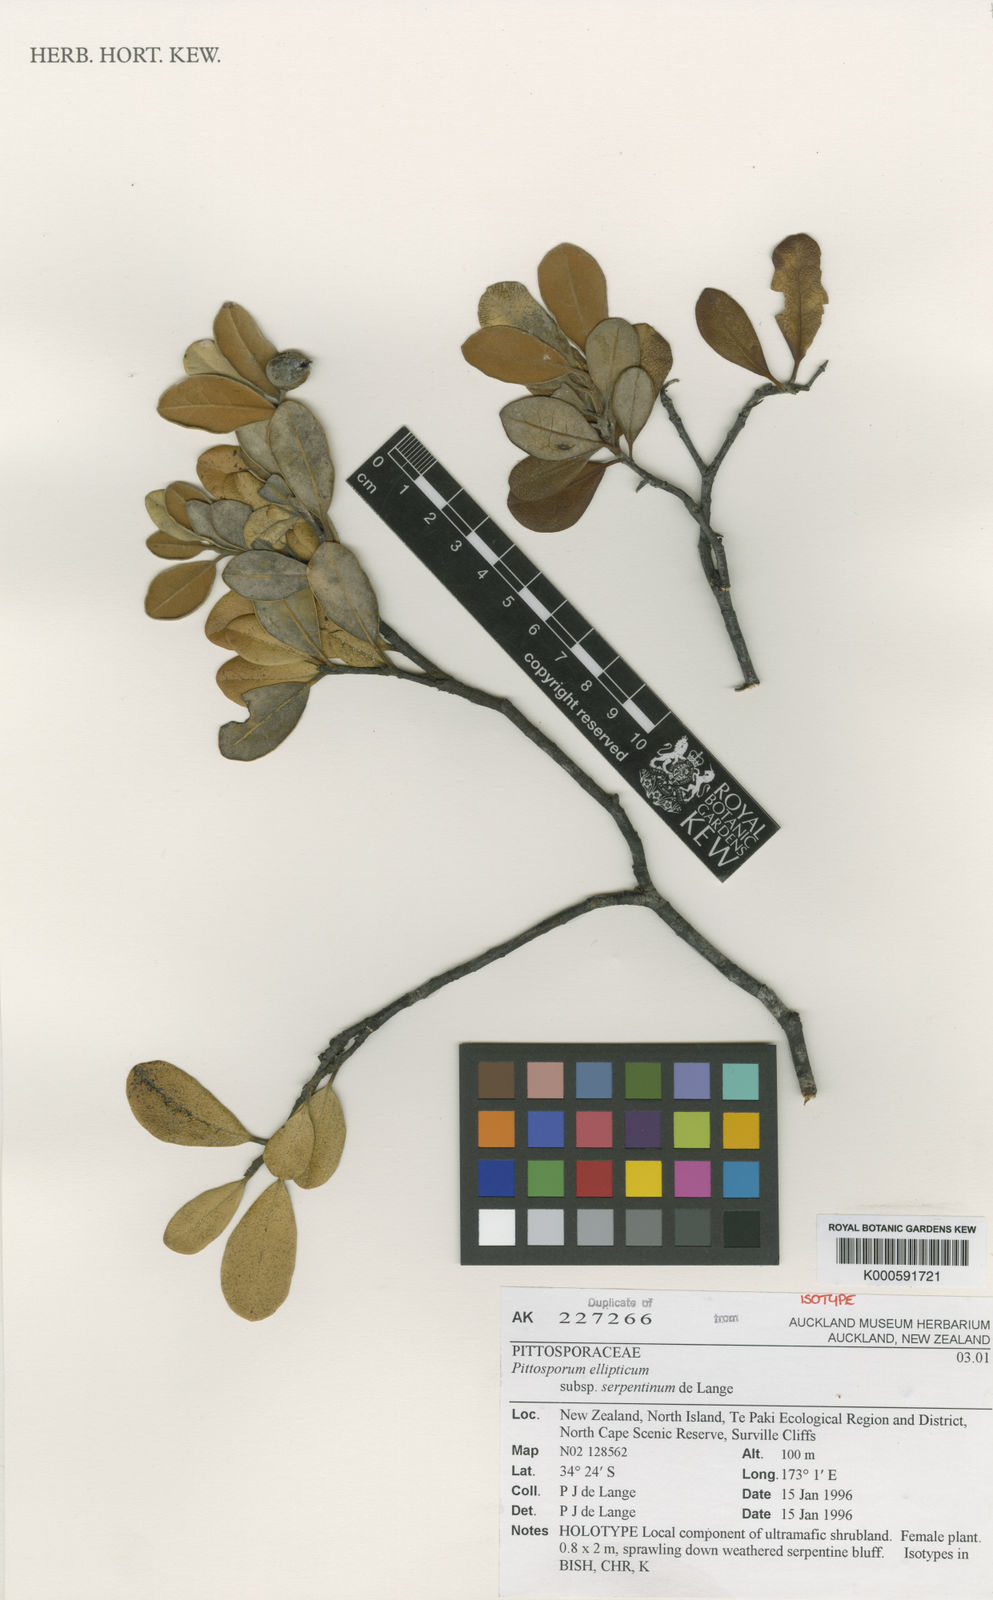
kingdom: Plantae
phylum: Tracheophyta
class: Magnoliopsida
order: Apiales
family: Pittosporaceae
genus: Pittosporum
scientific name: Pittosporum ellipticum
